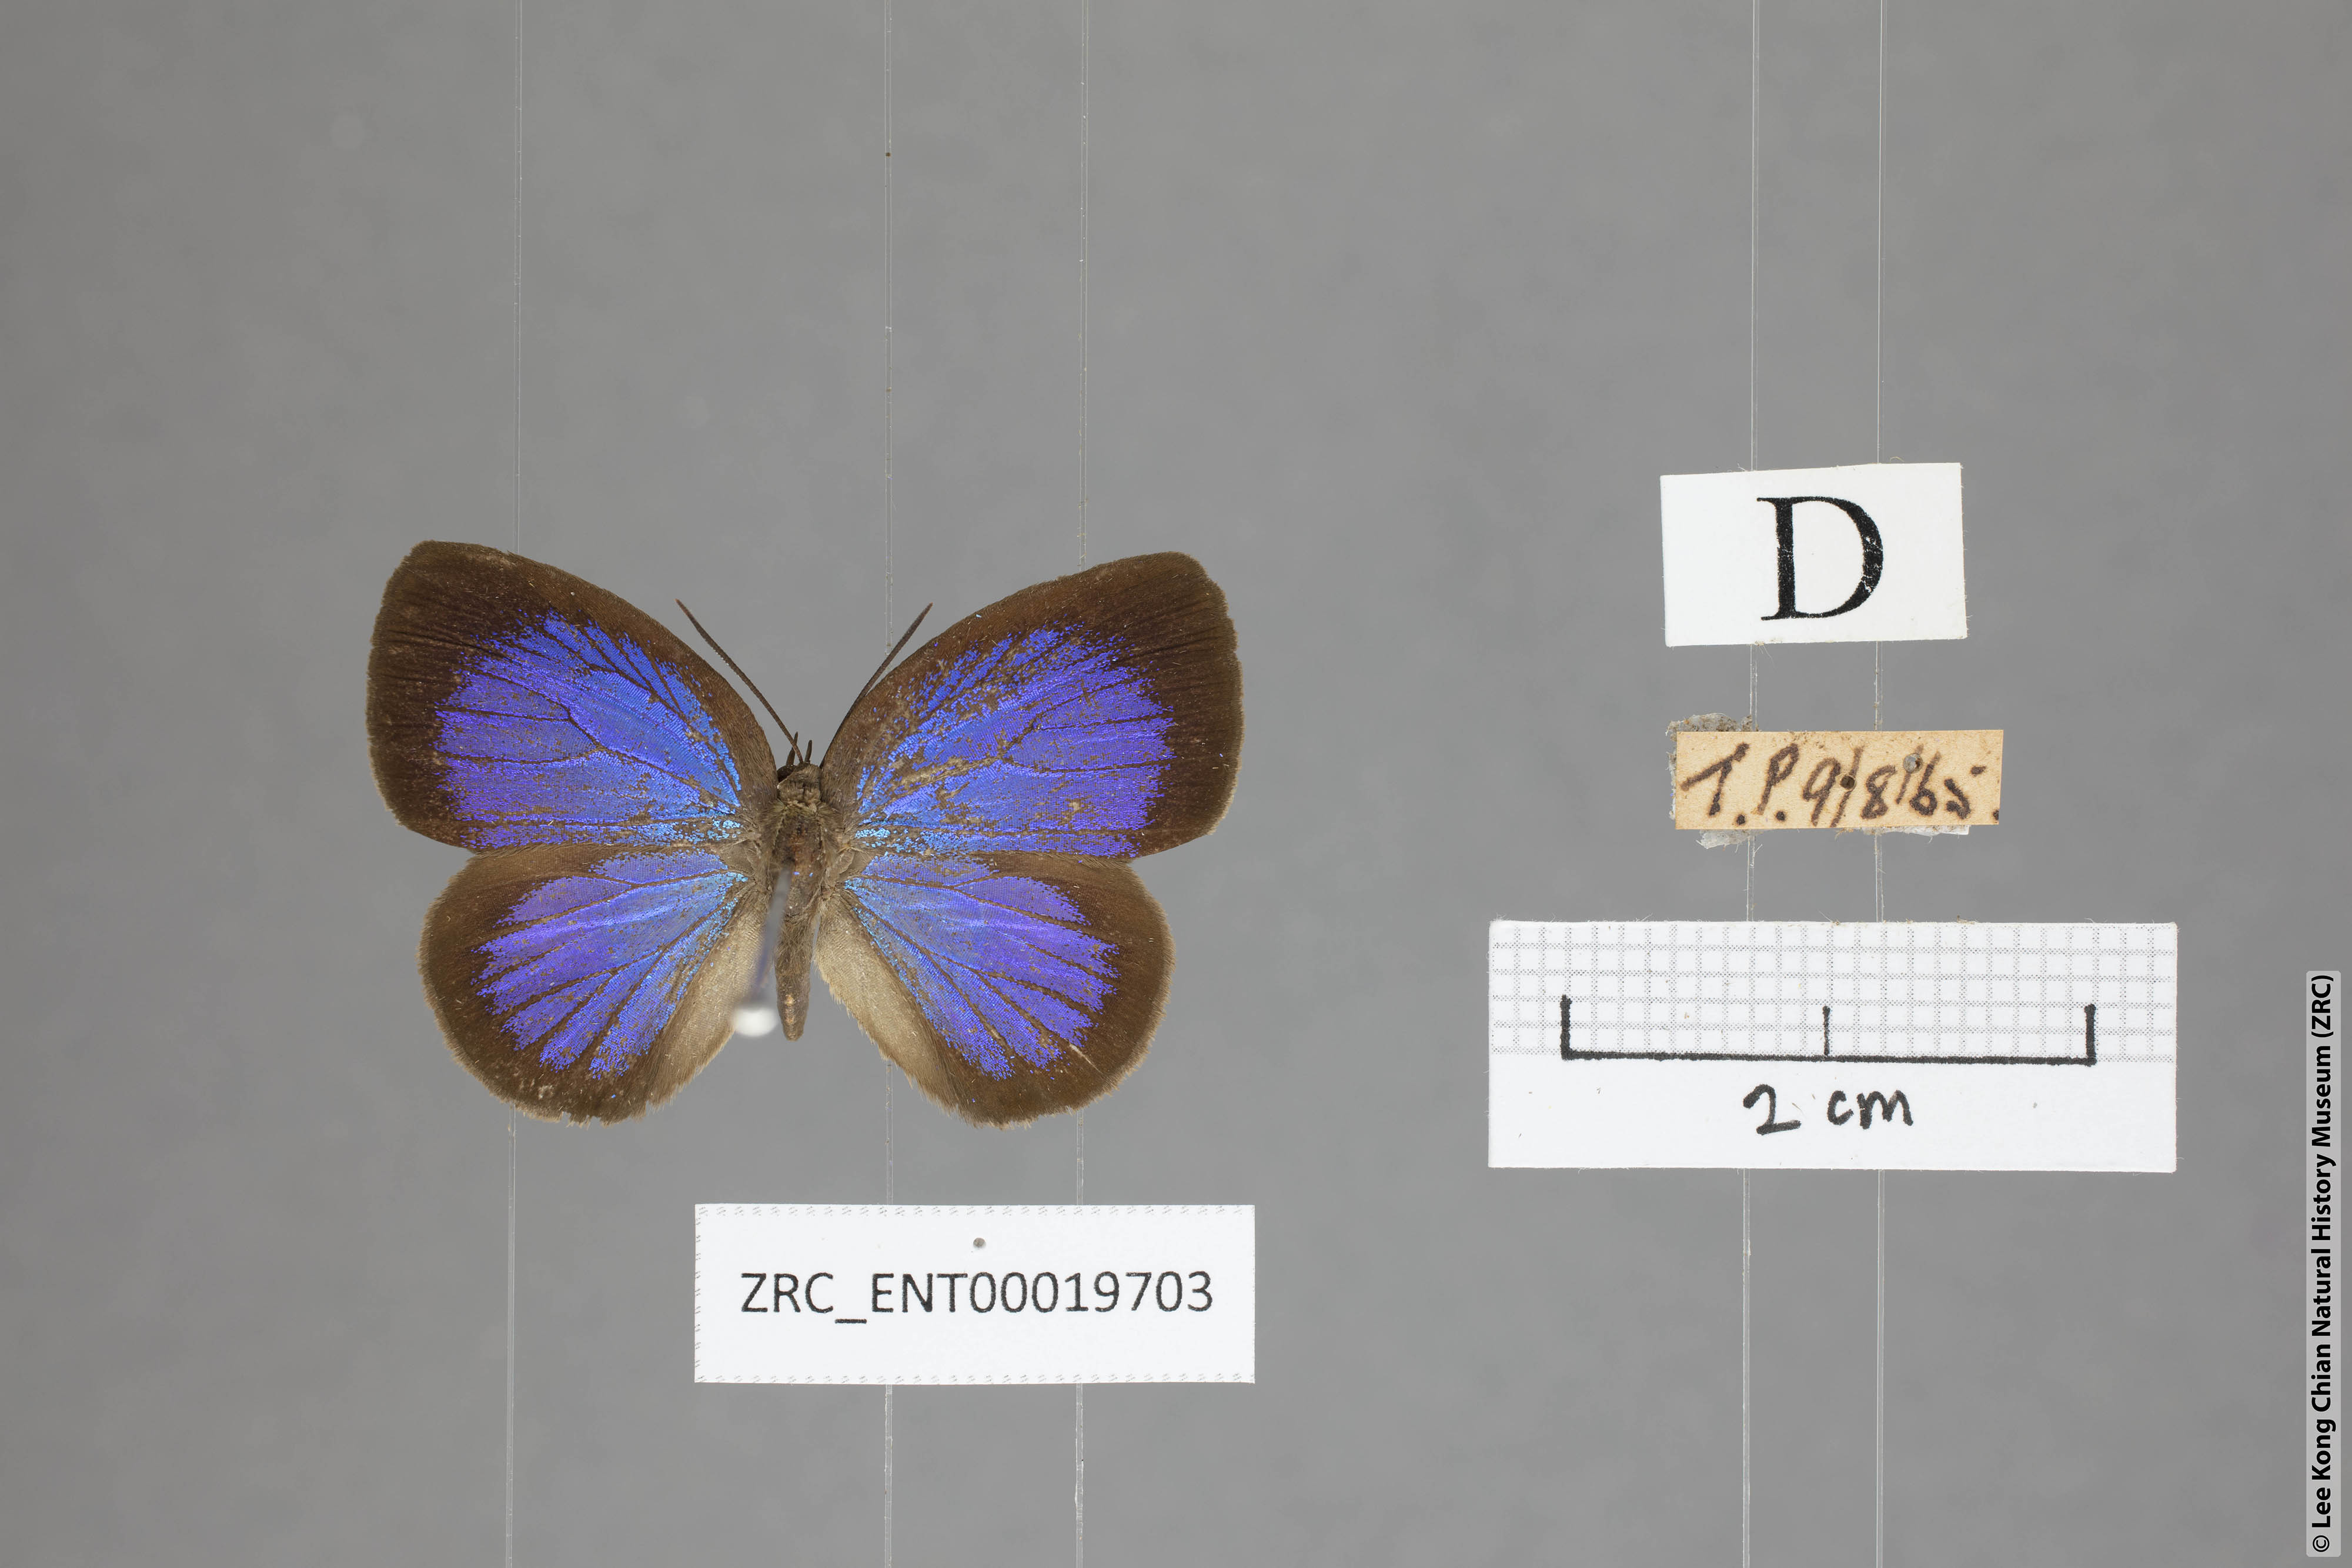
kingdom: Animalia
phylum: Arthropoda
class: Insecta
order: Lepidoptera
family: Lycaenidae
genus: Arhopala
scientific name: Arhopala muta
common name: Mutal oakblue
